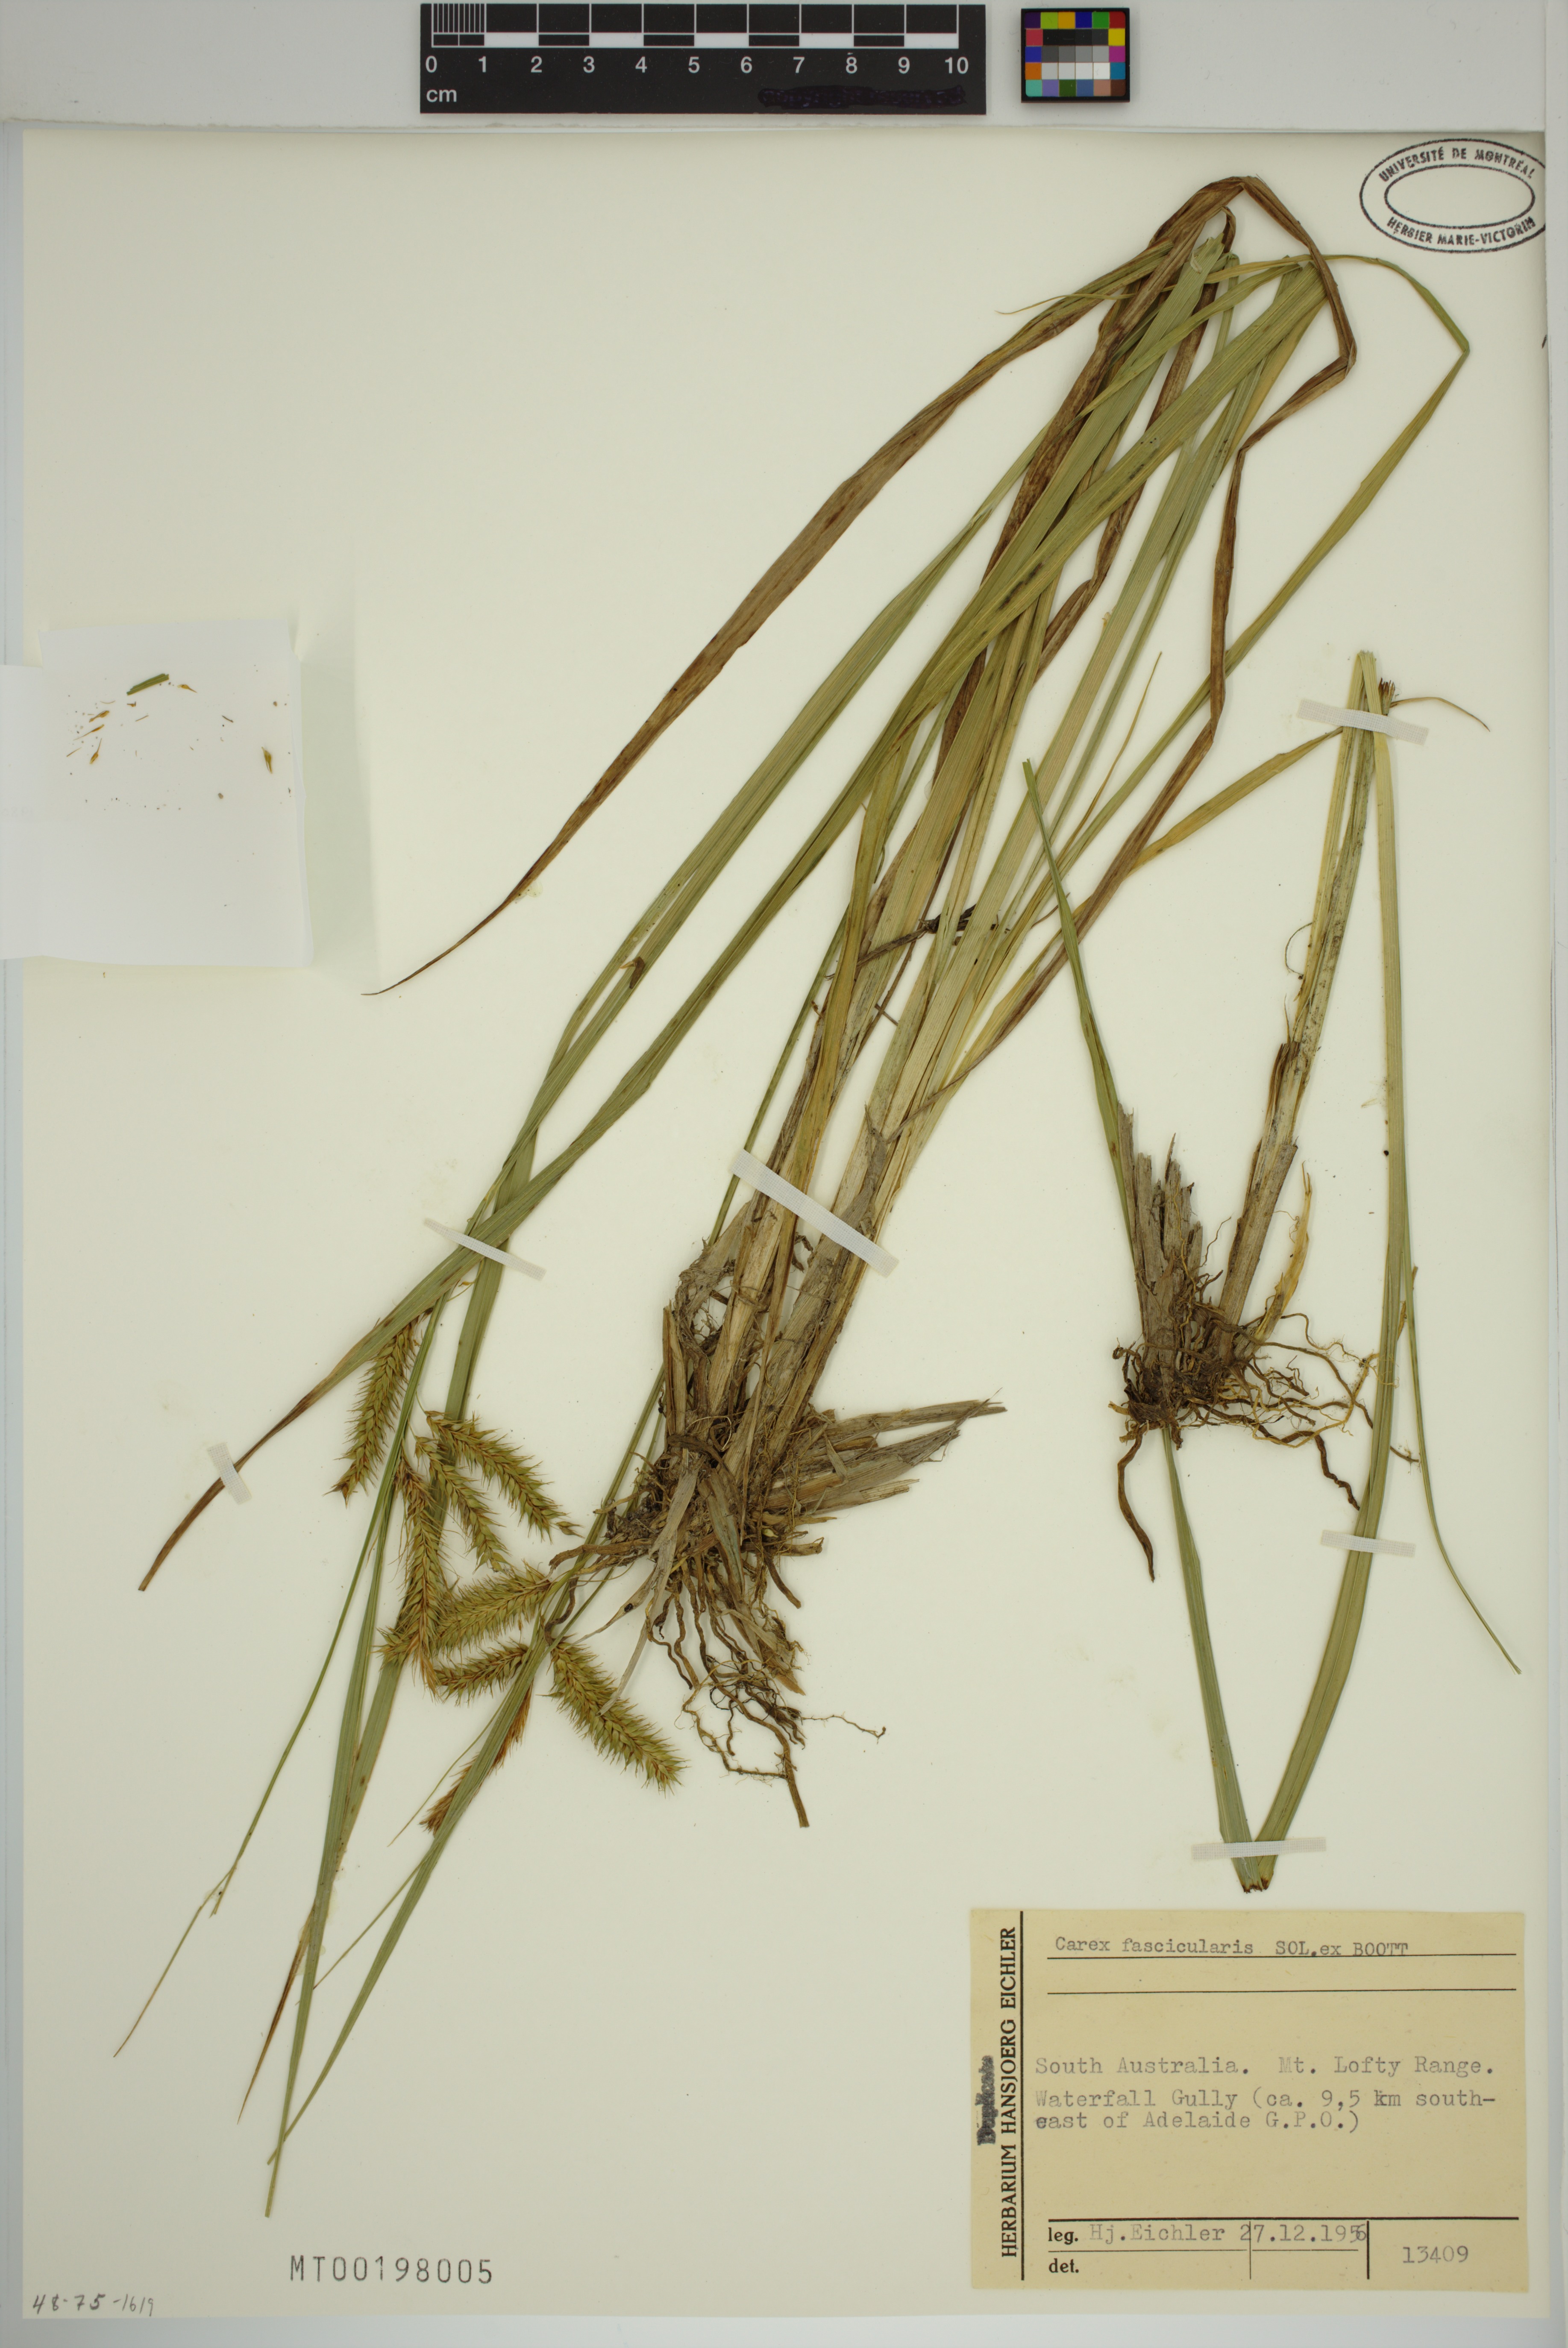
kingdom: Plantae
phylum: Tracheophyta
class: Liliopsida
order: Poales
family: Cyperaceae
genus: Carex
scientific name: Carex fascicularis
